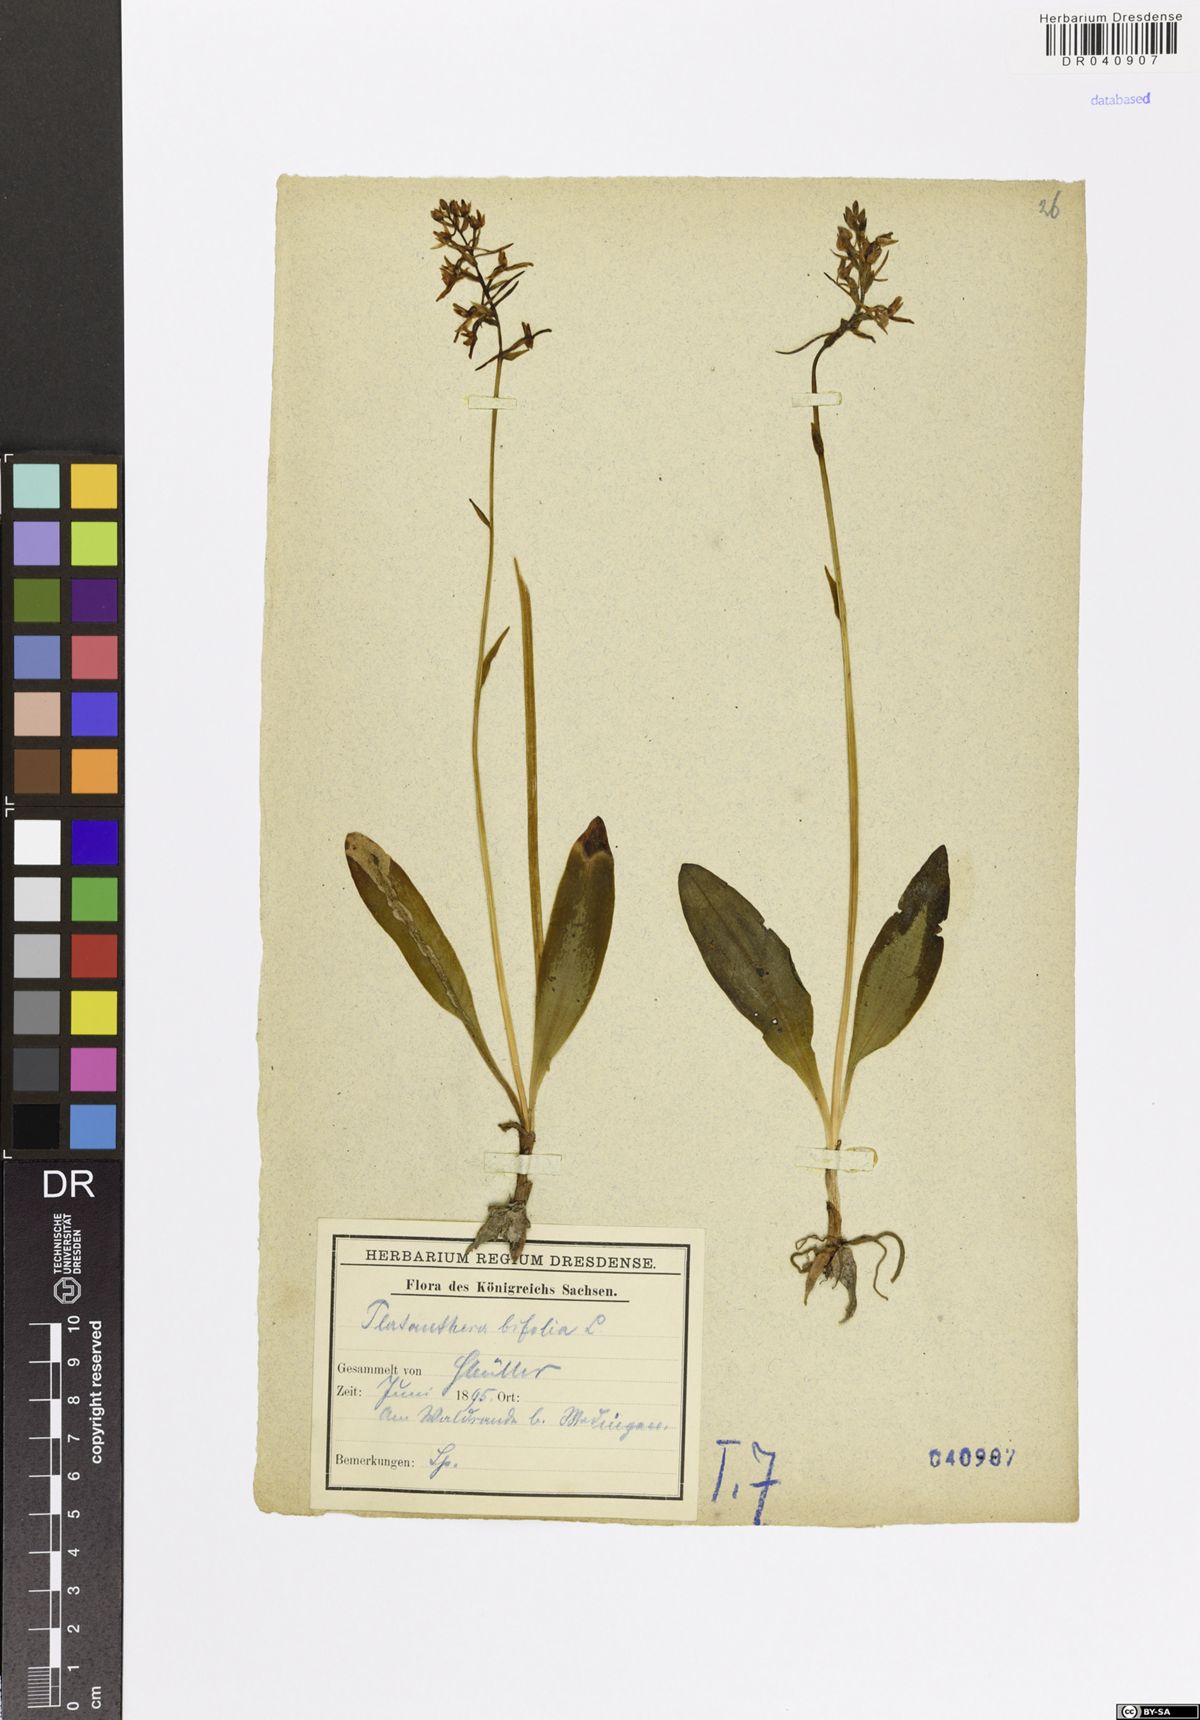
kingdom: Plantae
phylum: Tracheophyta
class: Liliopsida
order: Asparagales
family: Orchidaceae
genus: Platanthera
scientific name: Platanthera bifolia
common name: Lesser butterfly-orchid
